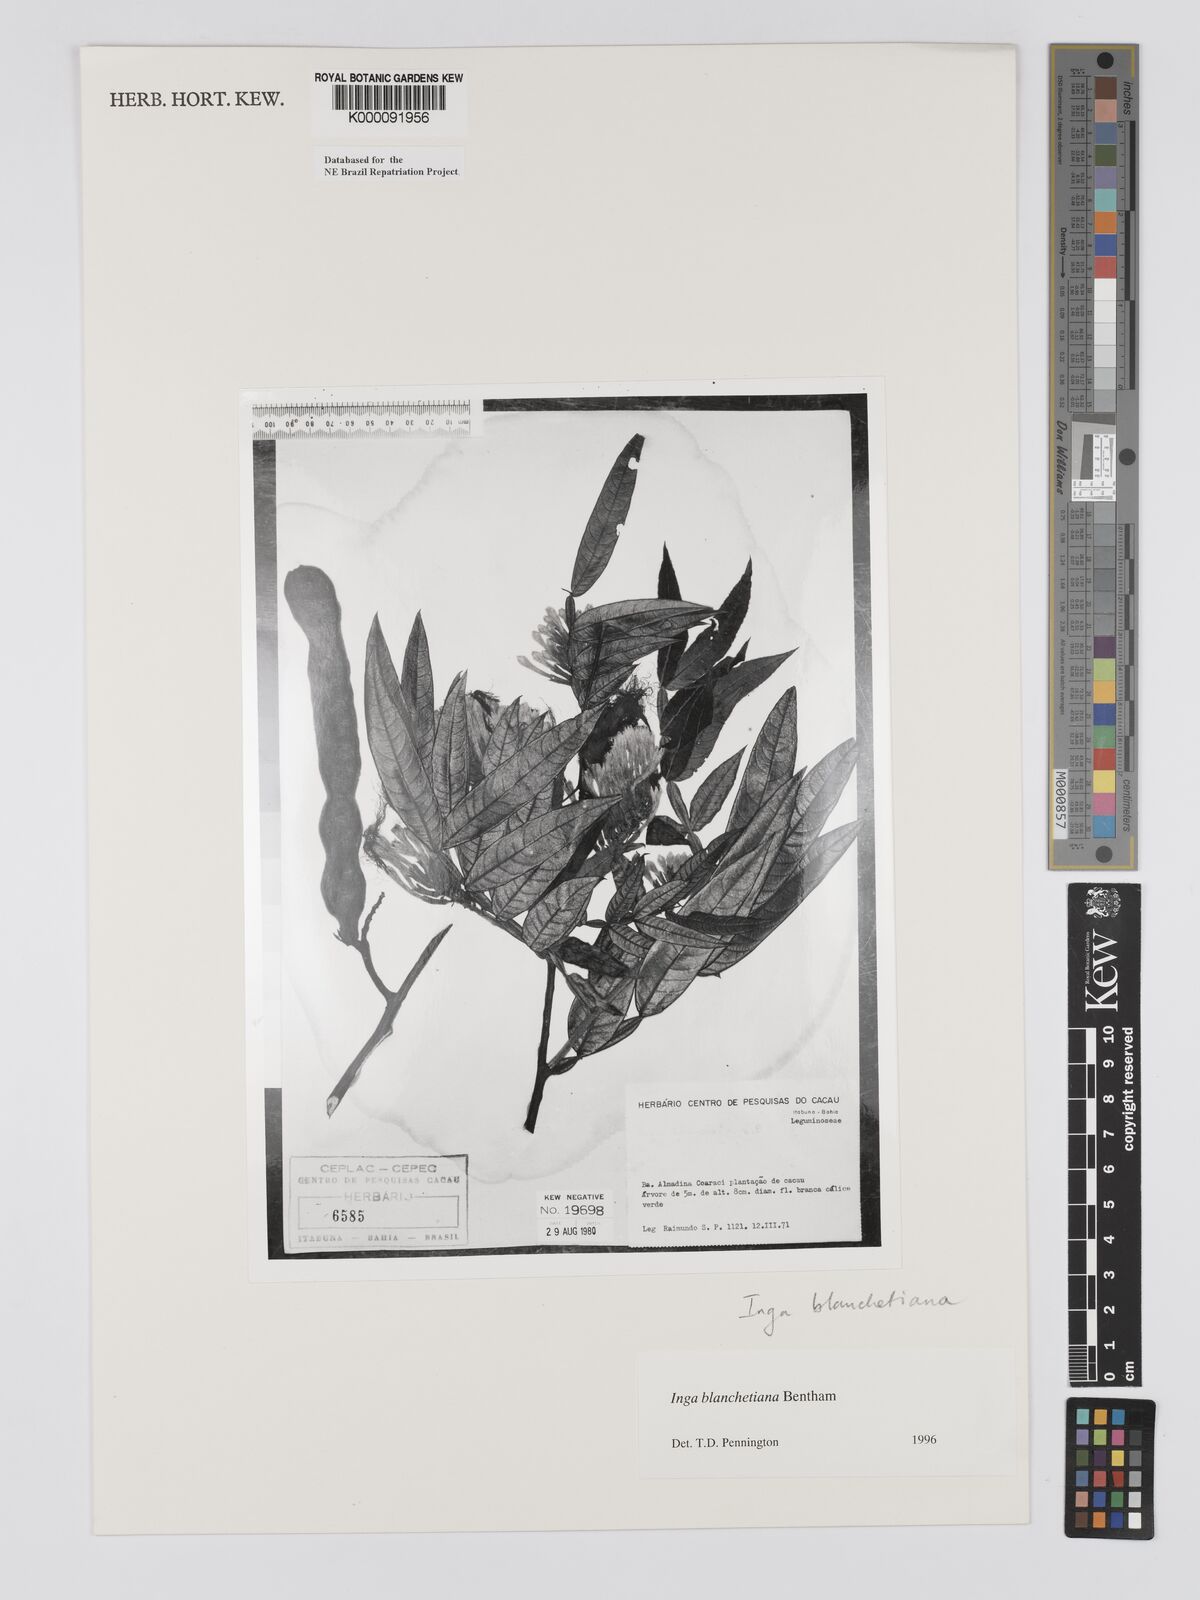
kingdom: Plantae
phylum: Tracheophyta
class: Magnoliopsida
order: Fabales
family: Fabaceae
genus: Inga
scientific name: Inga blanchetiana
